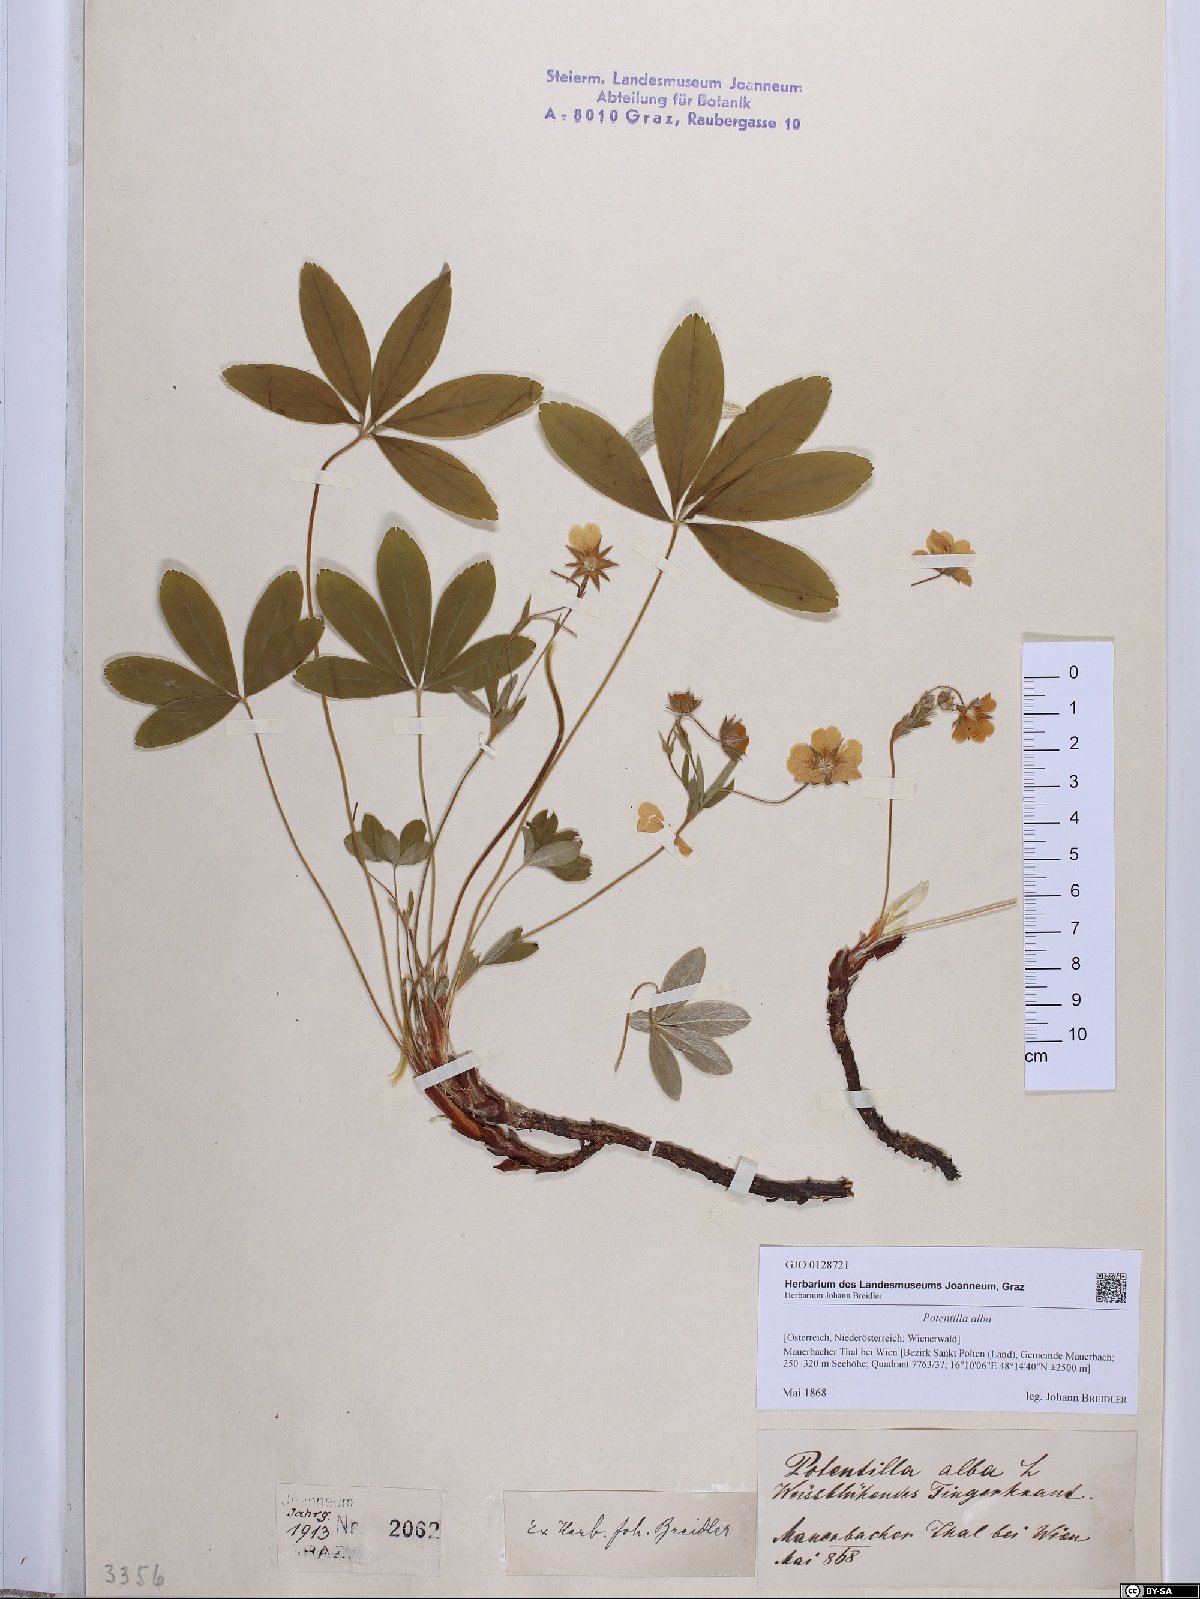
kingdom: Plantae
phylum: Tracheophyta
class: Magnoliopsida
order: Rosales
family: Rosaceae
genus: Potentilla
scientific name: Potentilla alba
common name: White cinquefoil
